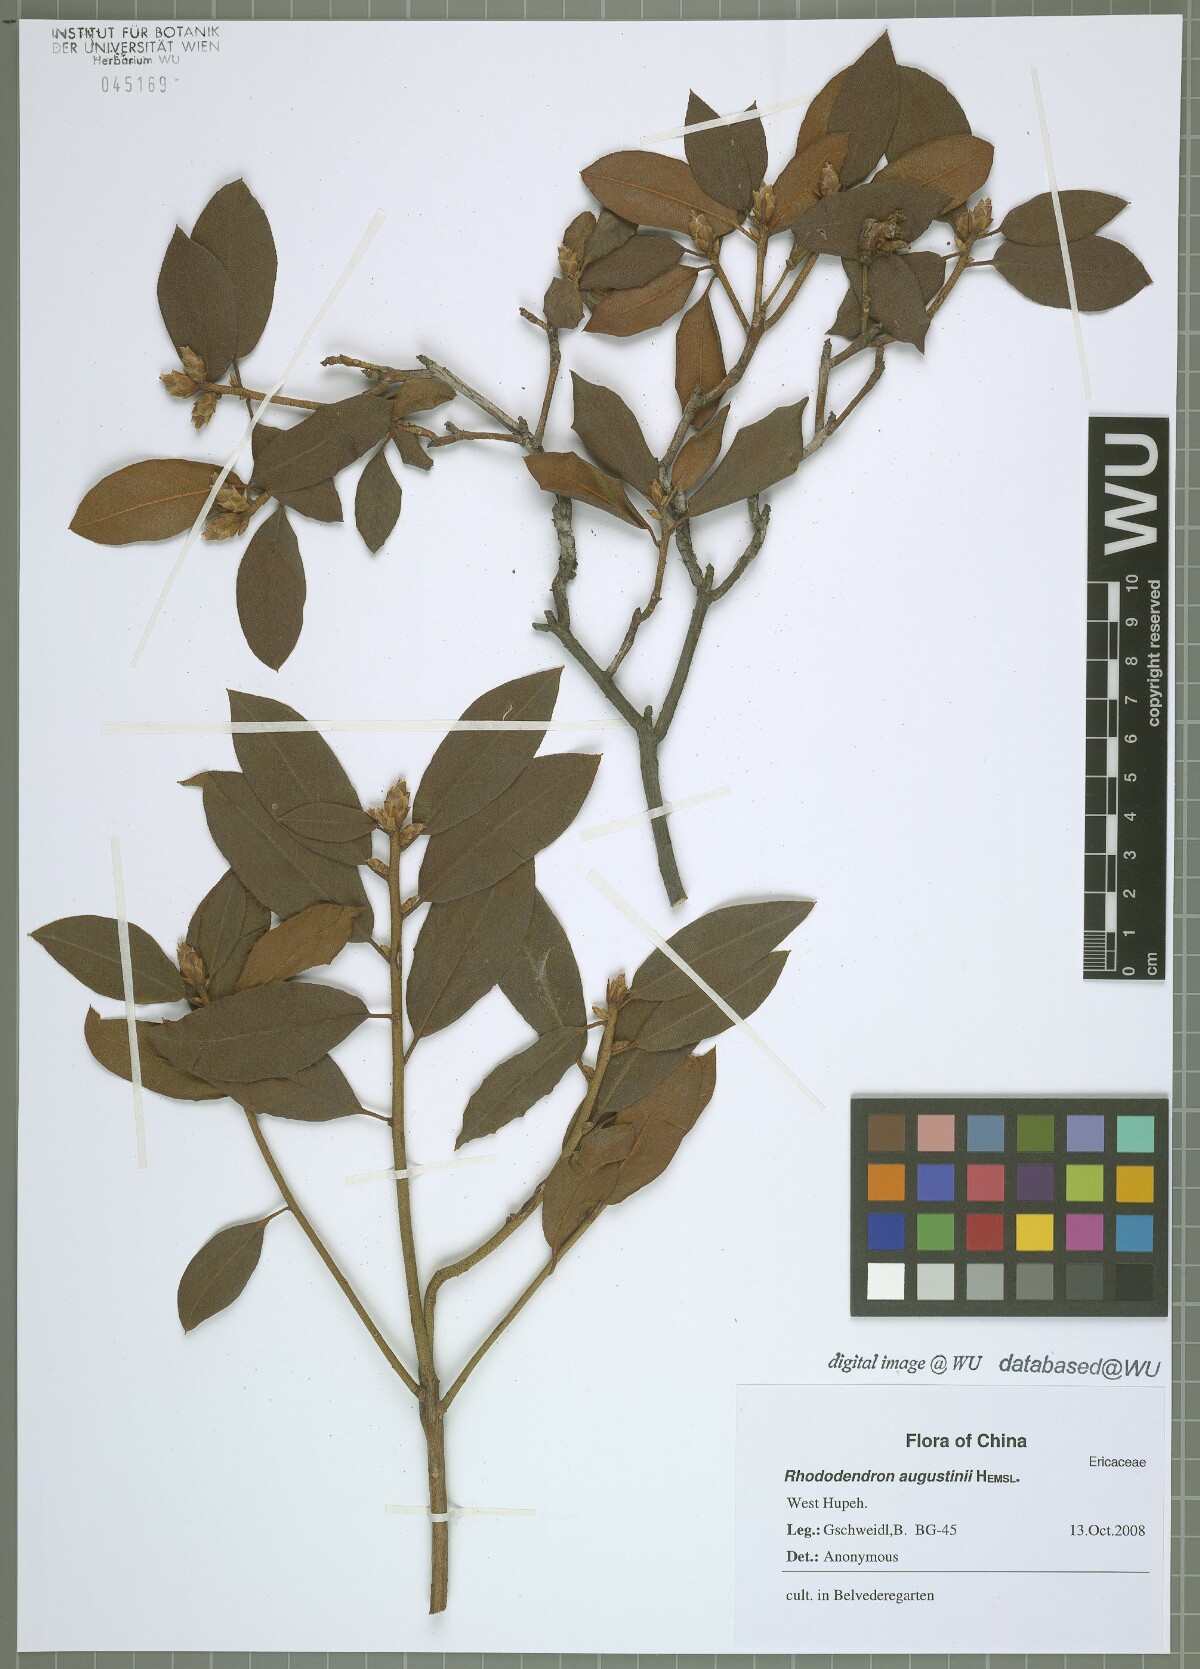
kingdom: Plantae
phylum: Tracheophyta
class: Magnoliopsida
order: Ericales
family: Ericaceae
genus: Rhododendron
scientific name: Rhododendron augustinii
